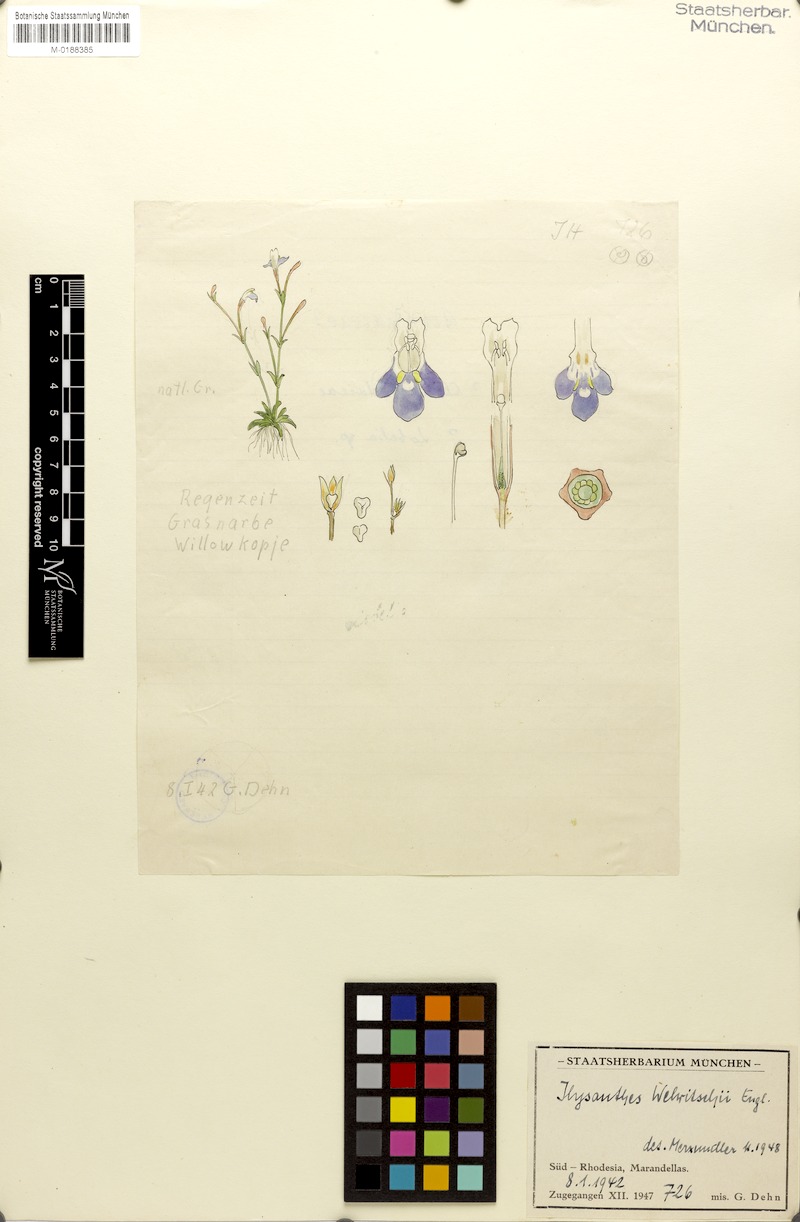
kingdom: Plantae
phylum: Tracheophyta
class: Magnoliopsida
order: Lamiales
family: Linderniaceae
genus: Craterostigma
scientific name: Craterostigma engleri
